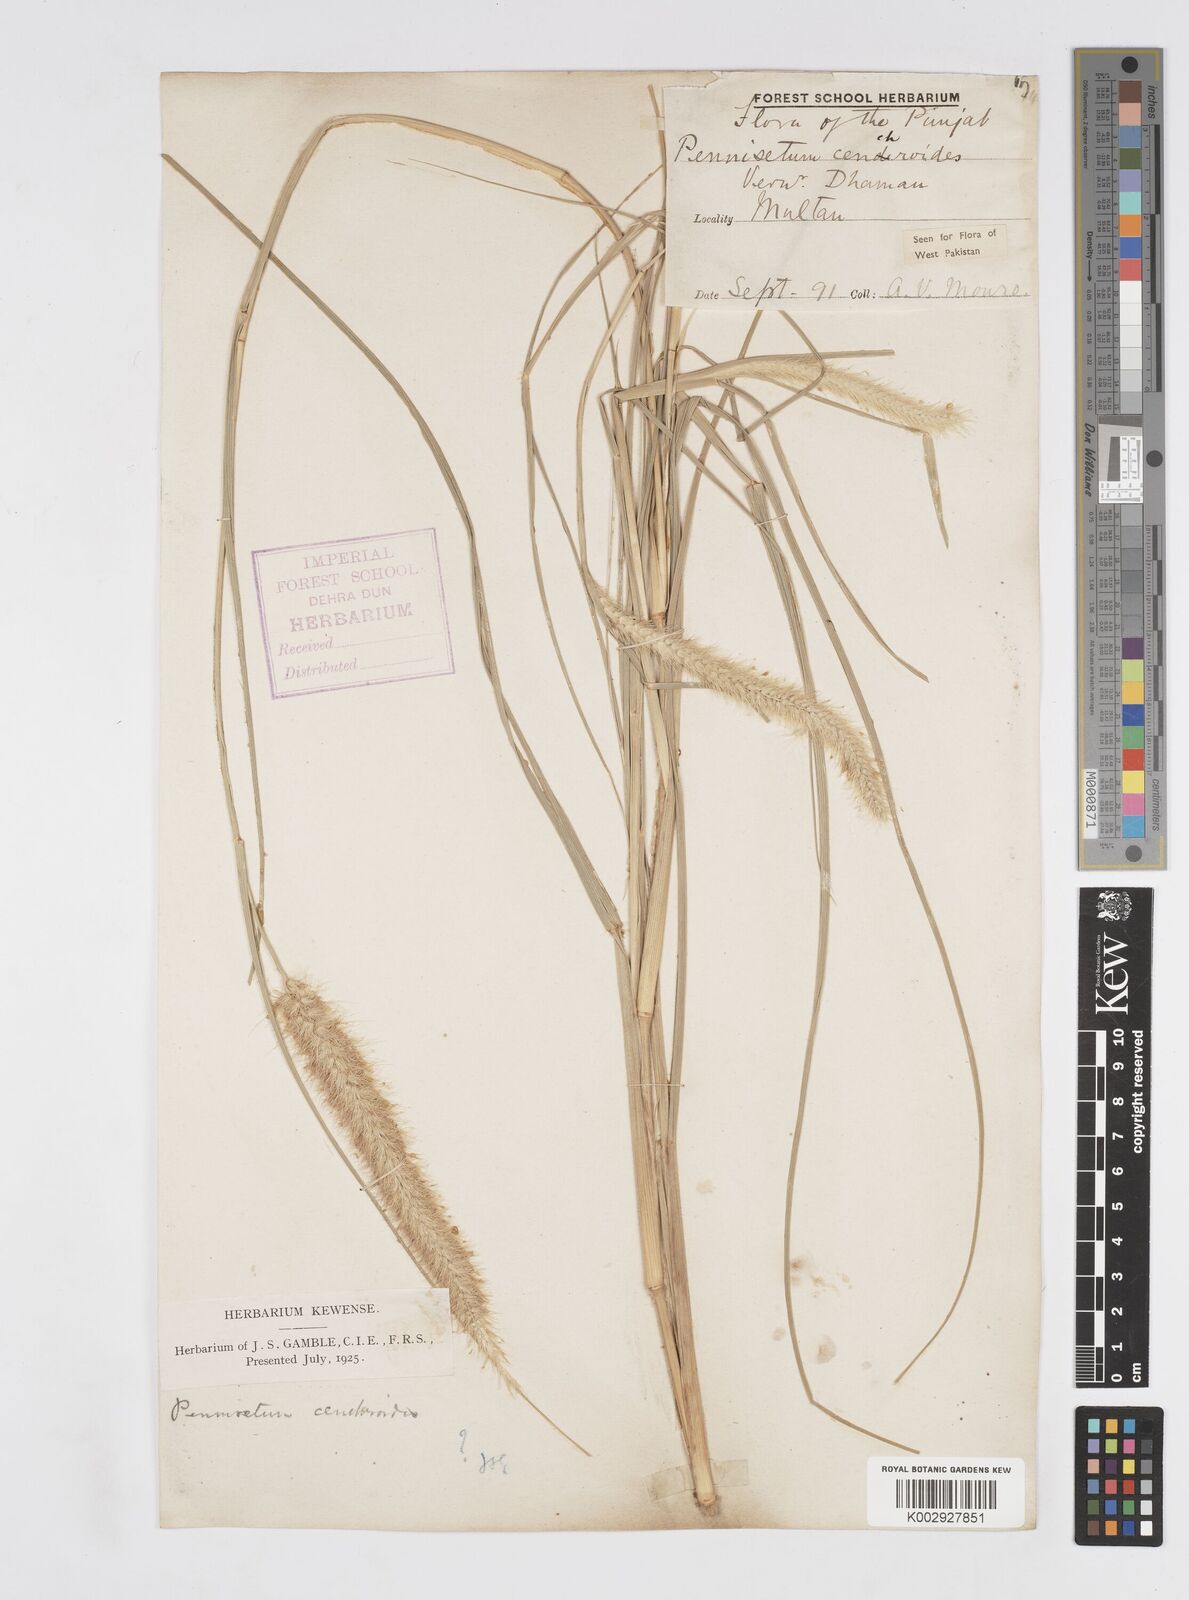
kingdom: Plantae
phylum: Tracheophyta
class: Liliopsida
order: Poales
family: Poaceae
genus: Cenchrus
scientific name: Cenchrus ciliaris
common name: Buffelgrass
